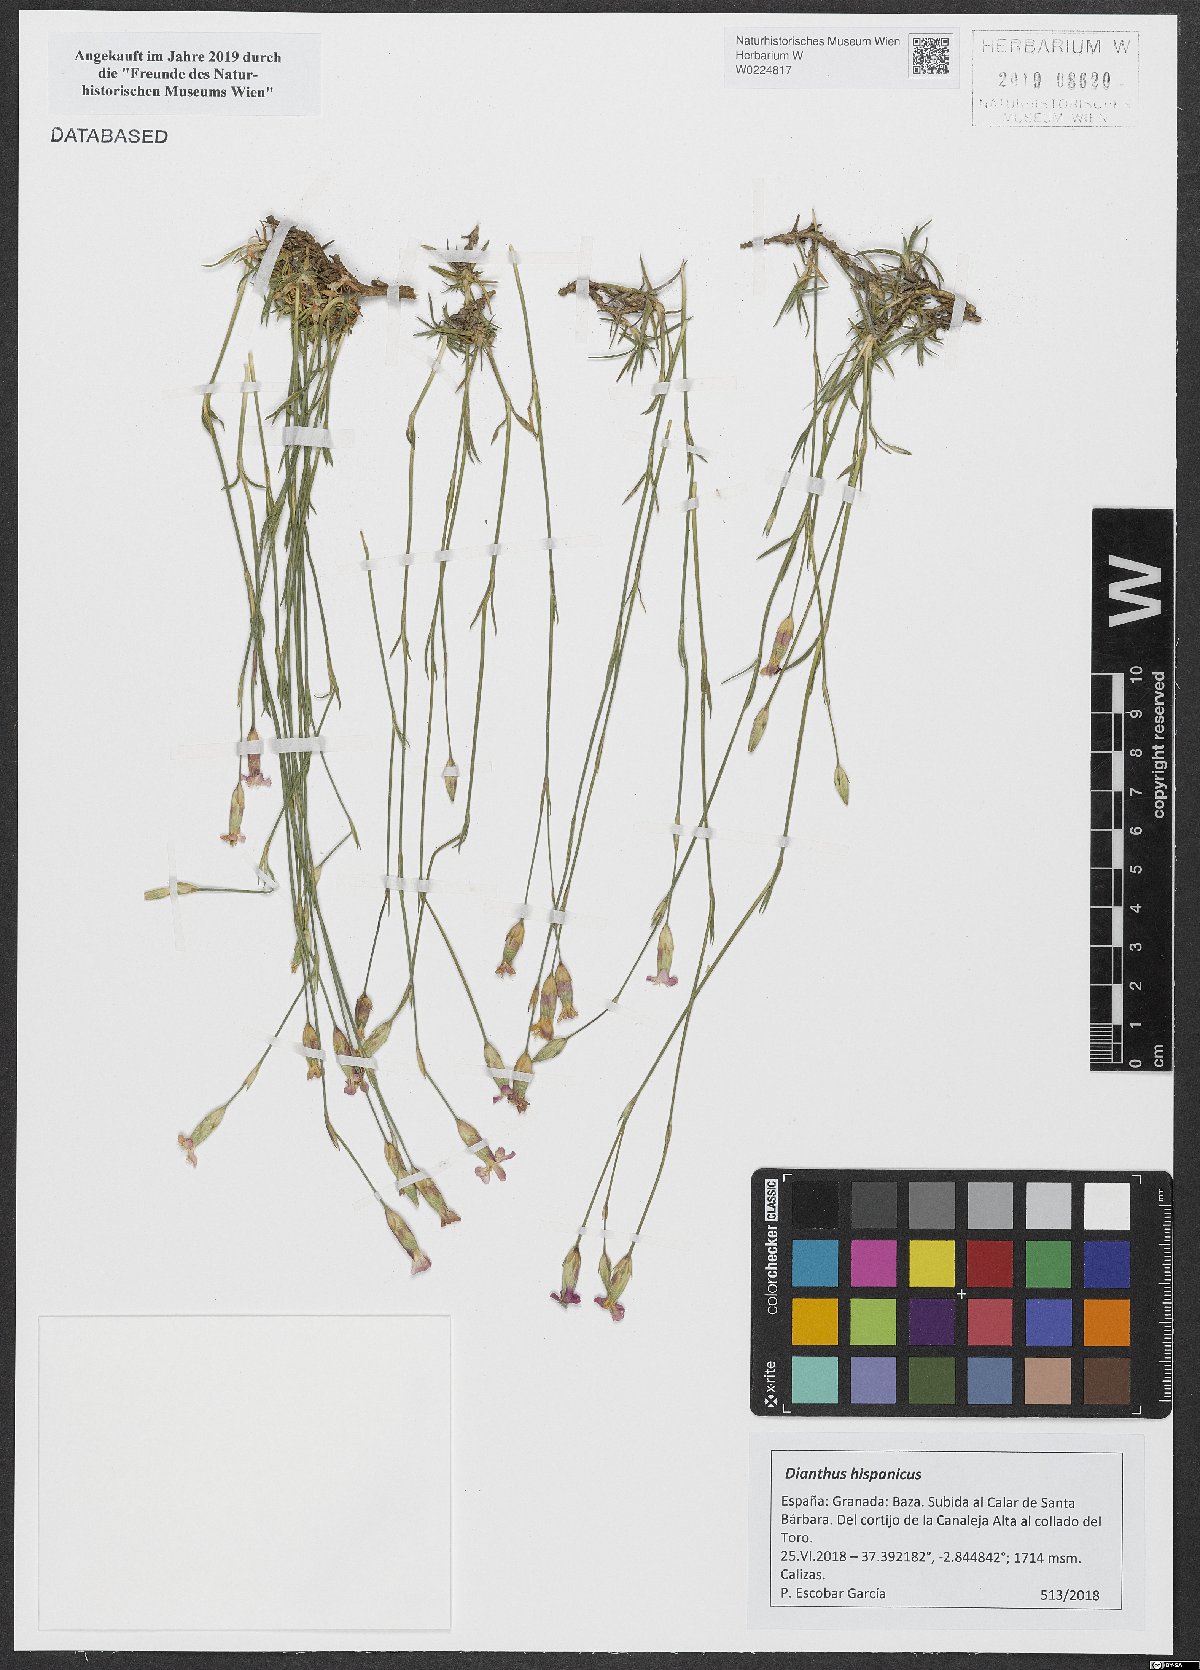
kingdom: Plantae
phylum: Tracheophyta
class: Magnoliopsida
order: Caryophyllales
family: Caryophyllaceae
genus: Dianthus
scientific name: Dianthus pungens
